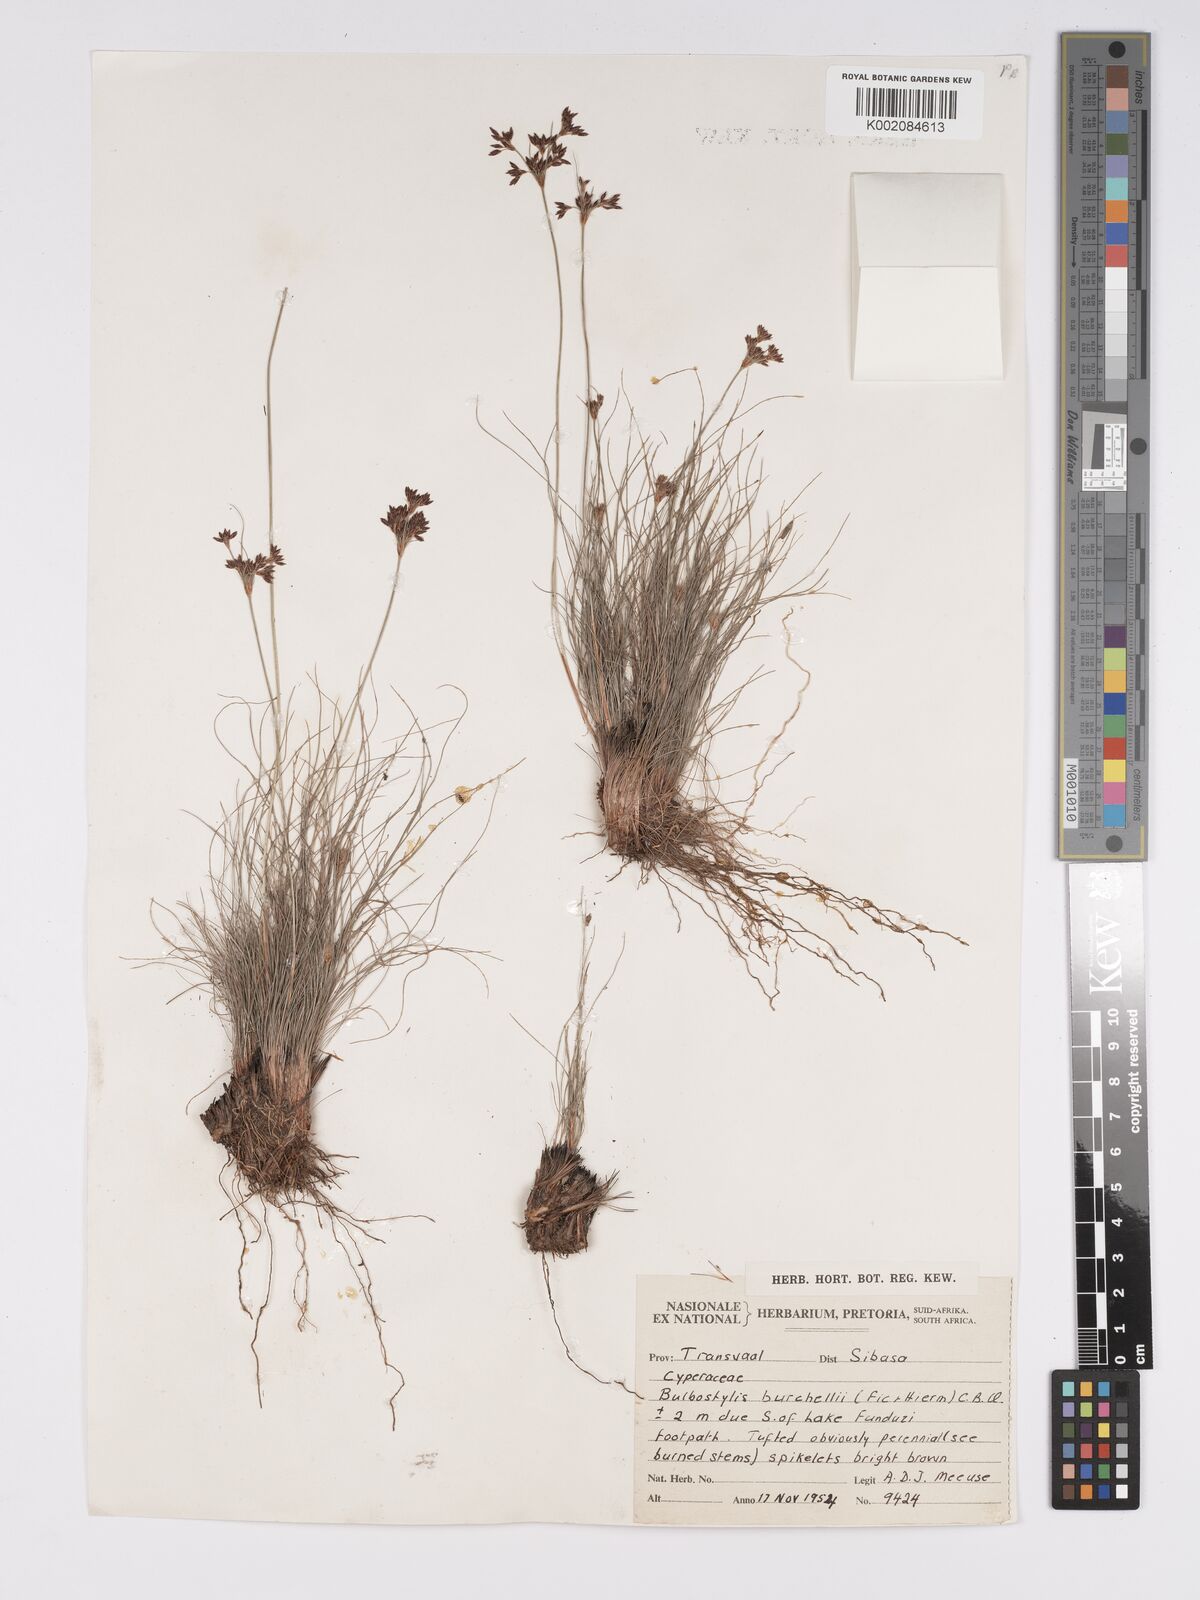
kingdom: Plantae
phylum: Tracheophyta
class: Liliopsida
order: Poales
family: Cyperaceae
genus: Bulbostylis
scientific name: Bulbostylis burchellii
